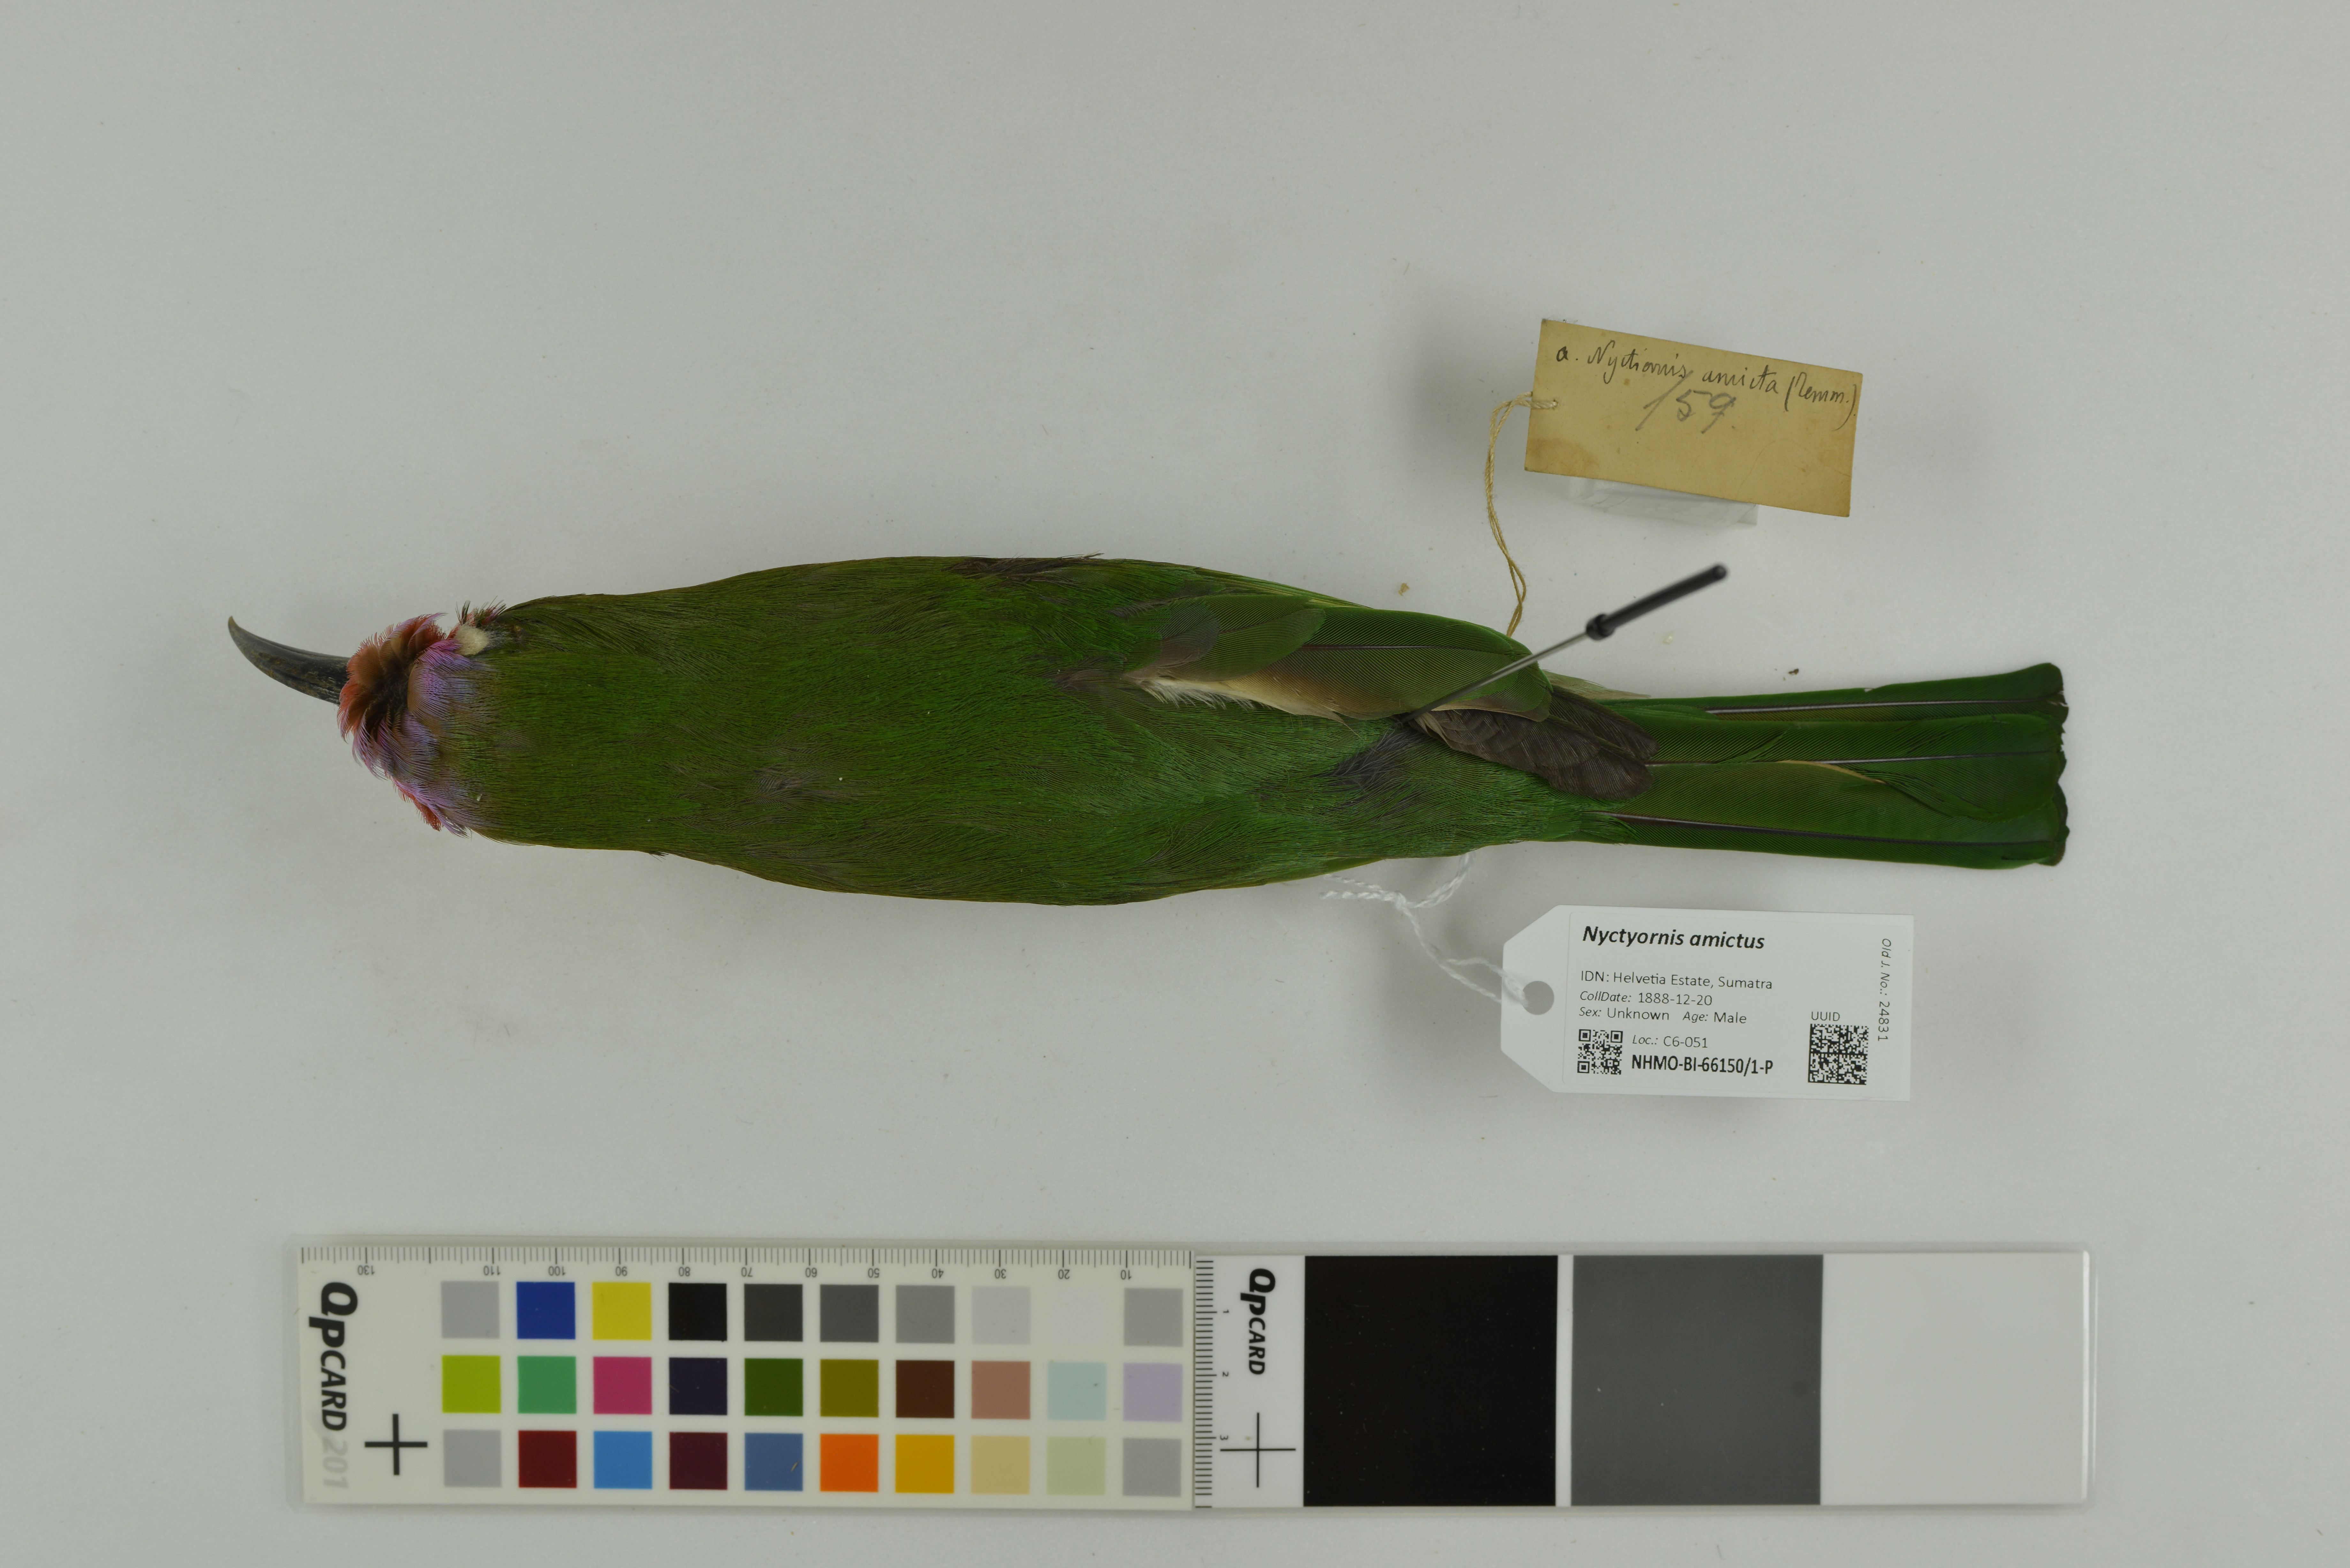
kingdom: Animalia
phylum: Chordata
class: Aves
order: Coraciiformes
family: Meropidae
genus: Nyctyornis
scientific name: Nyctyornis amictus
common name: Red-bearded bee-eater
